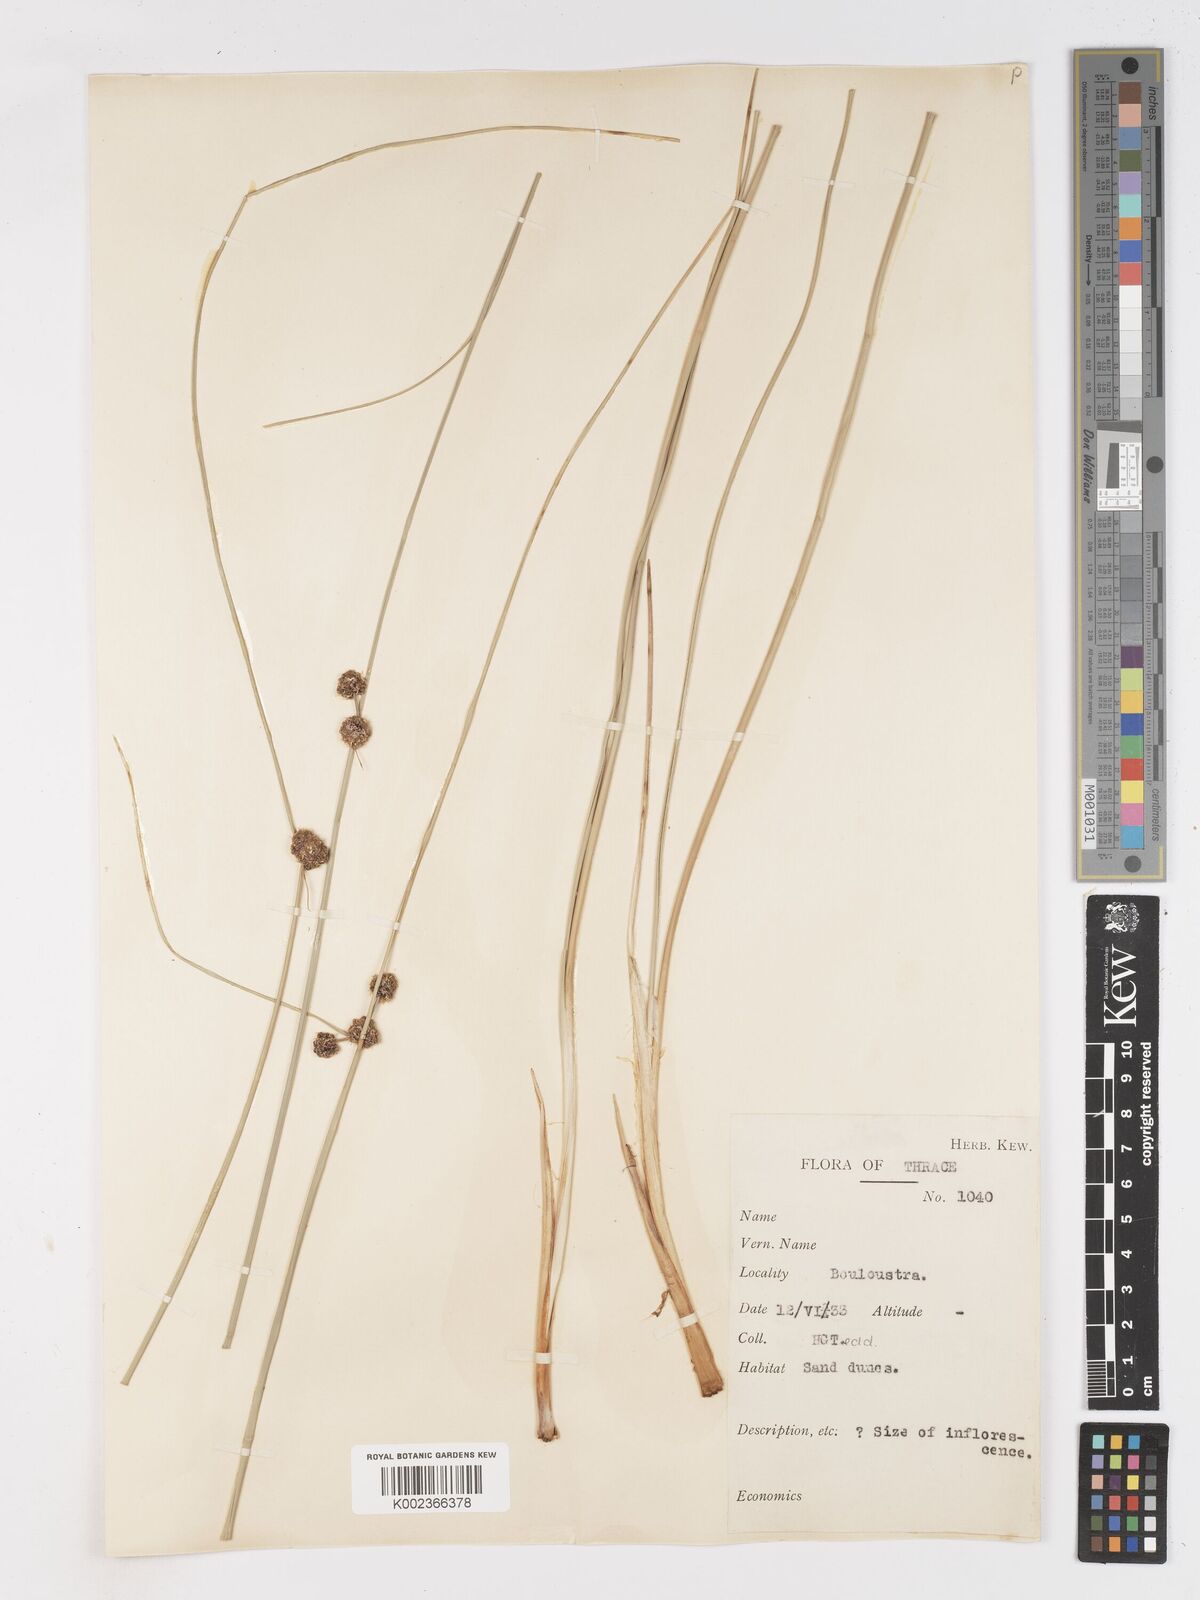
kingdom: Plantae
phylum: Tracheophyta
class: Liliopsida
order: Poales
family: Cyperaceae
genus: Scirpoides
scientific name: Scirpoides holoschoenus
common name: Round-headed club-rush
